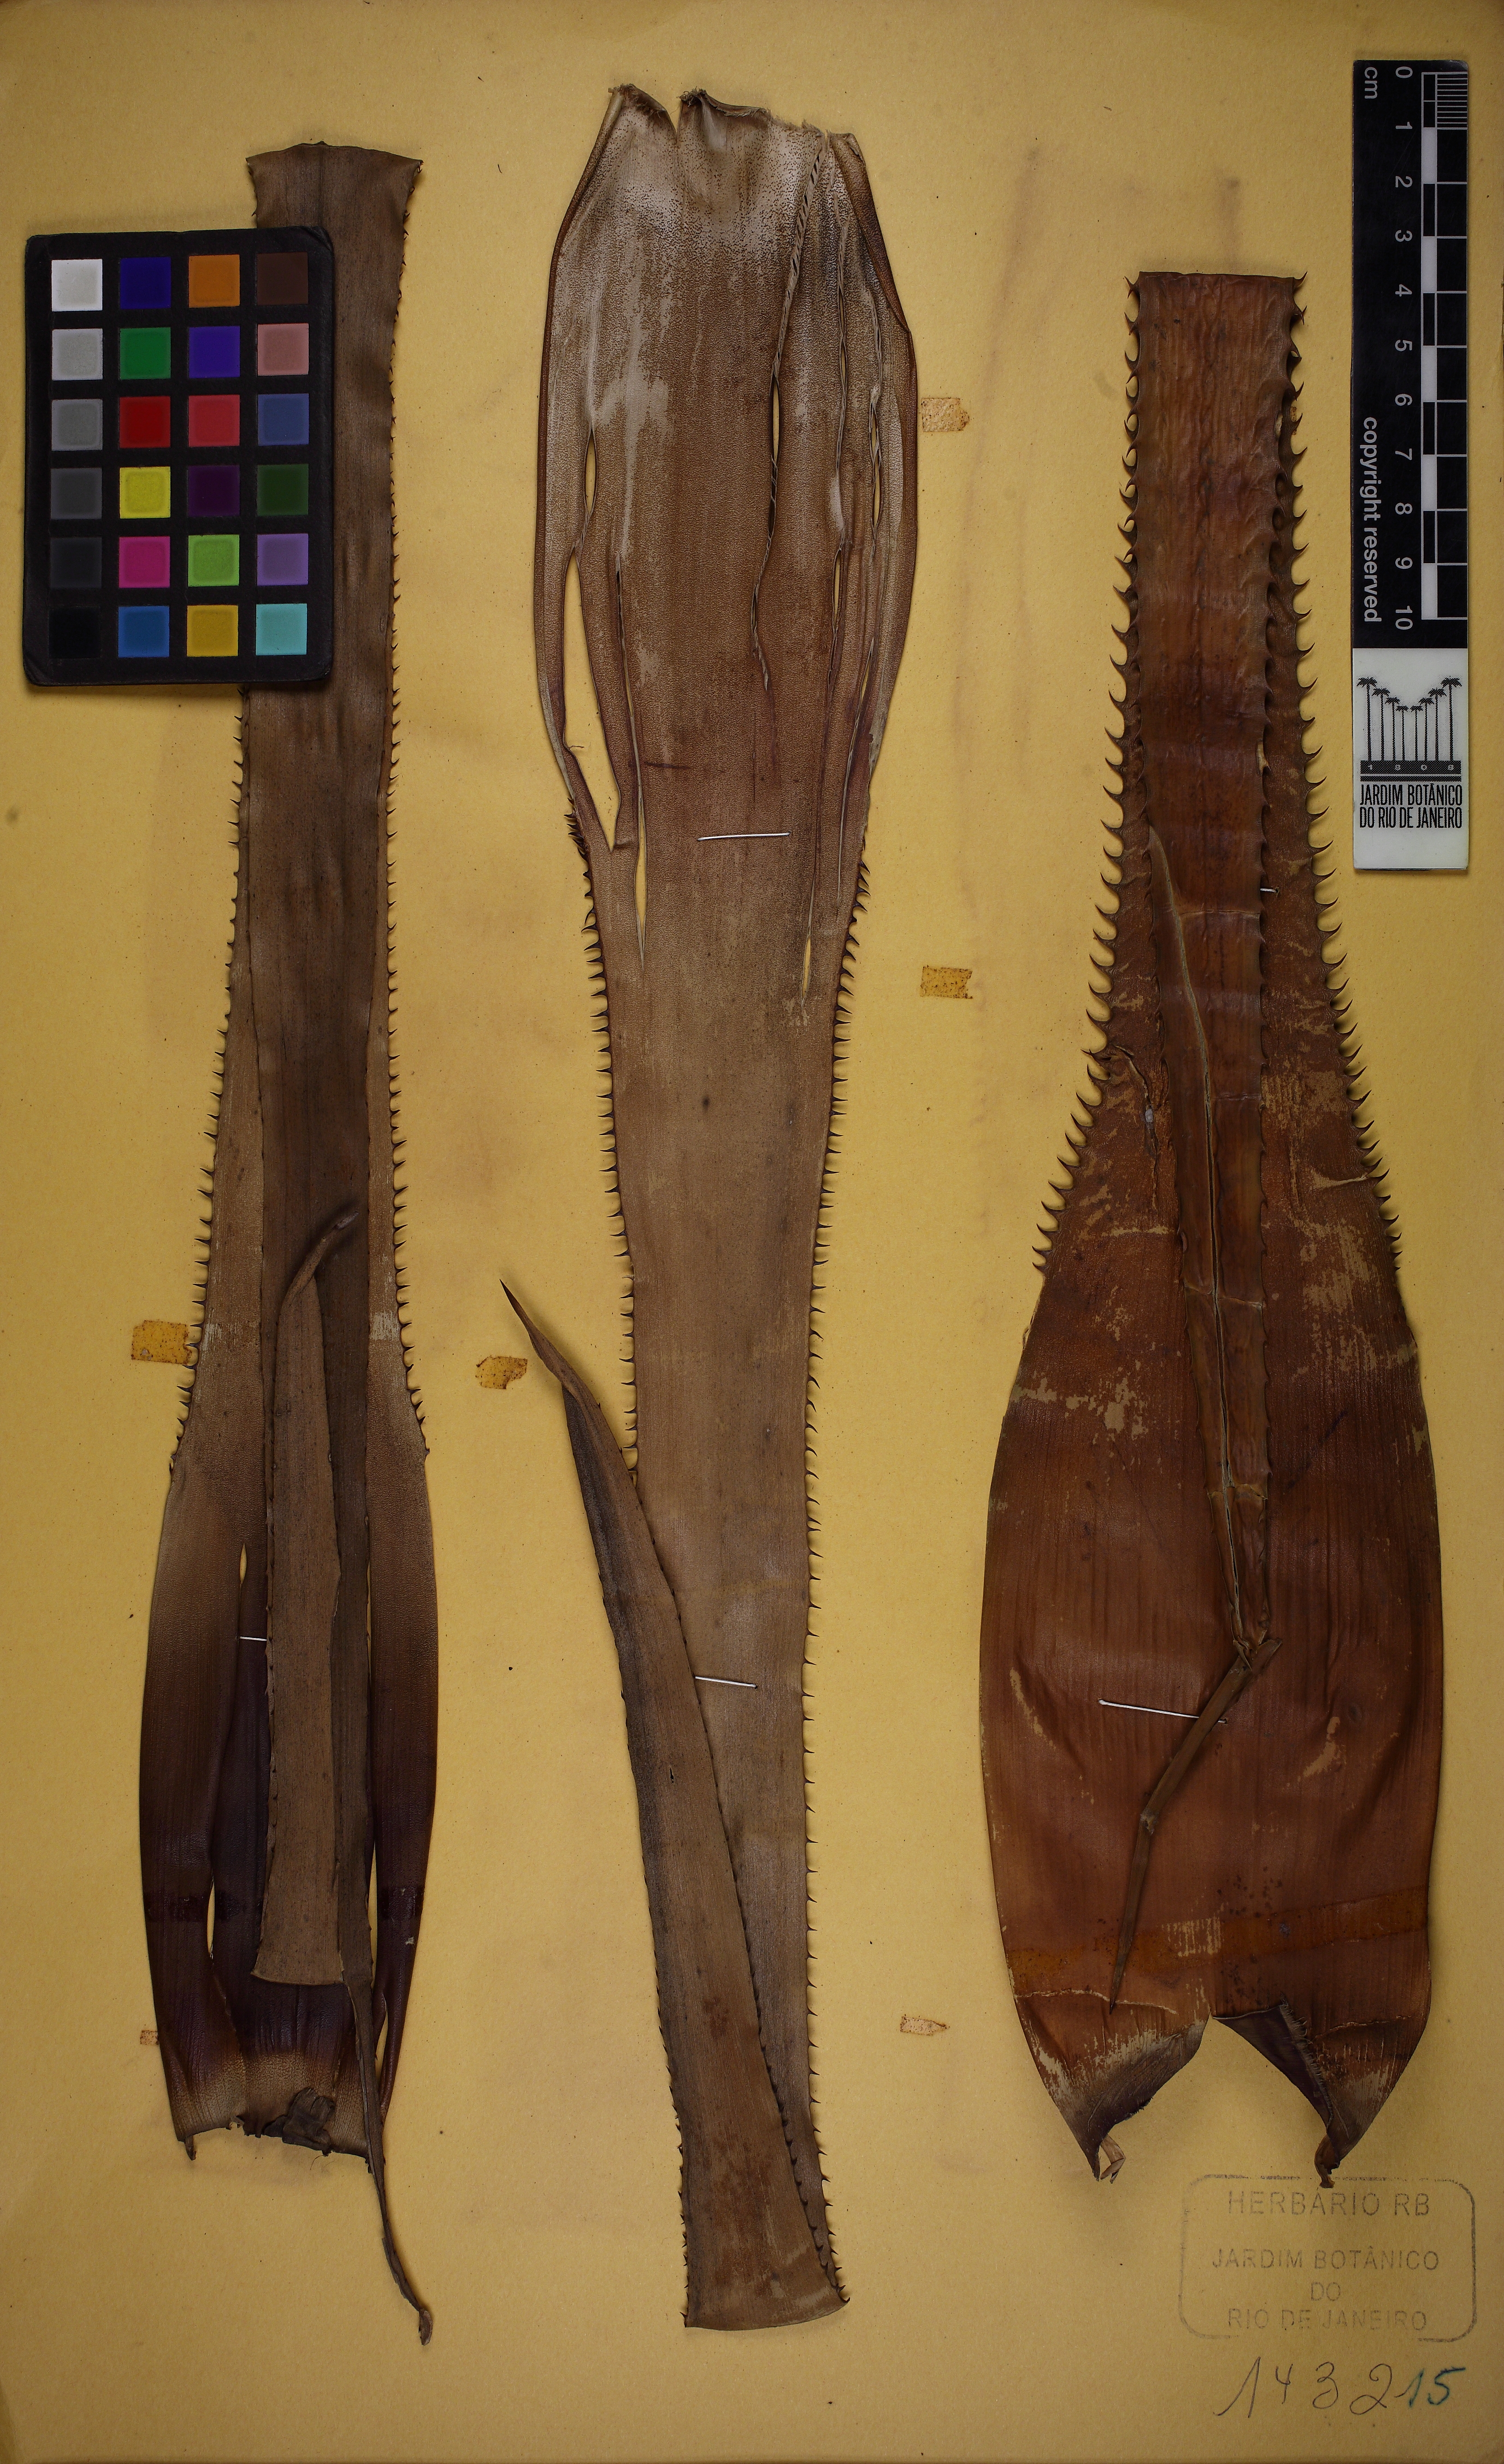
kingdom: Plantae
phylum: Tracheophyta
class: Liliopsida
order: Poales
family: Bromeliaceae
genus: Portea
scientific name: Portea petropolitana
